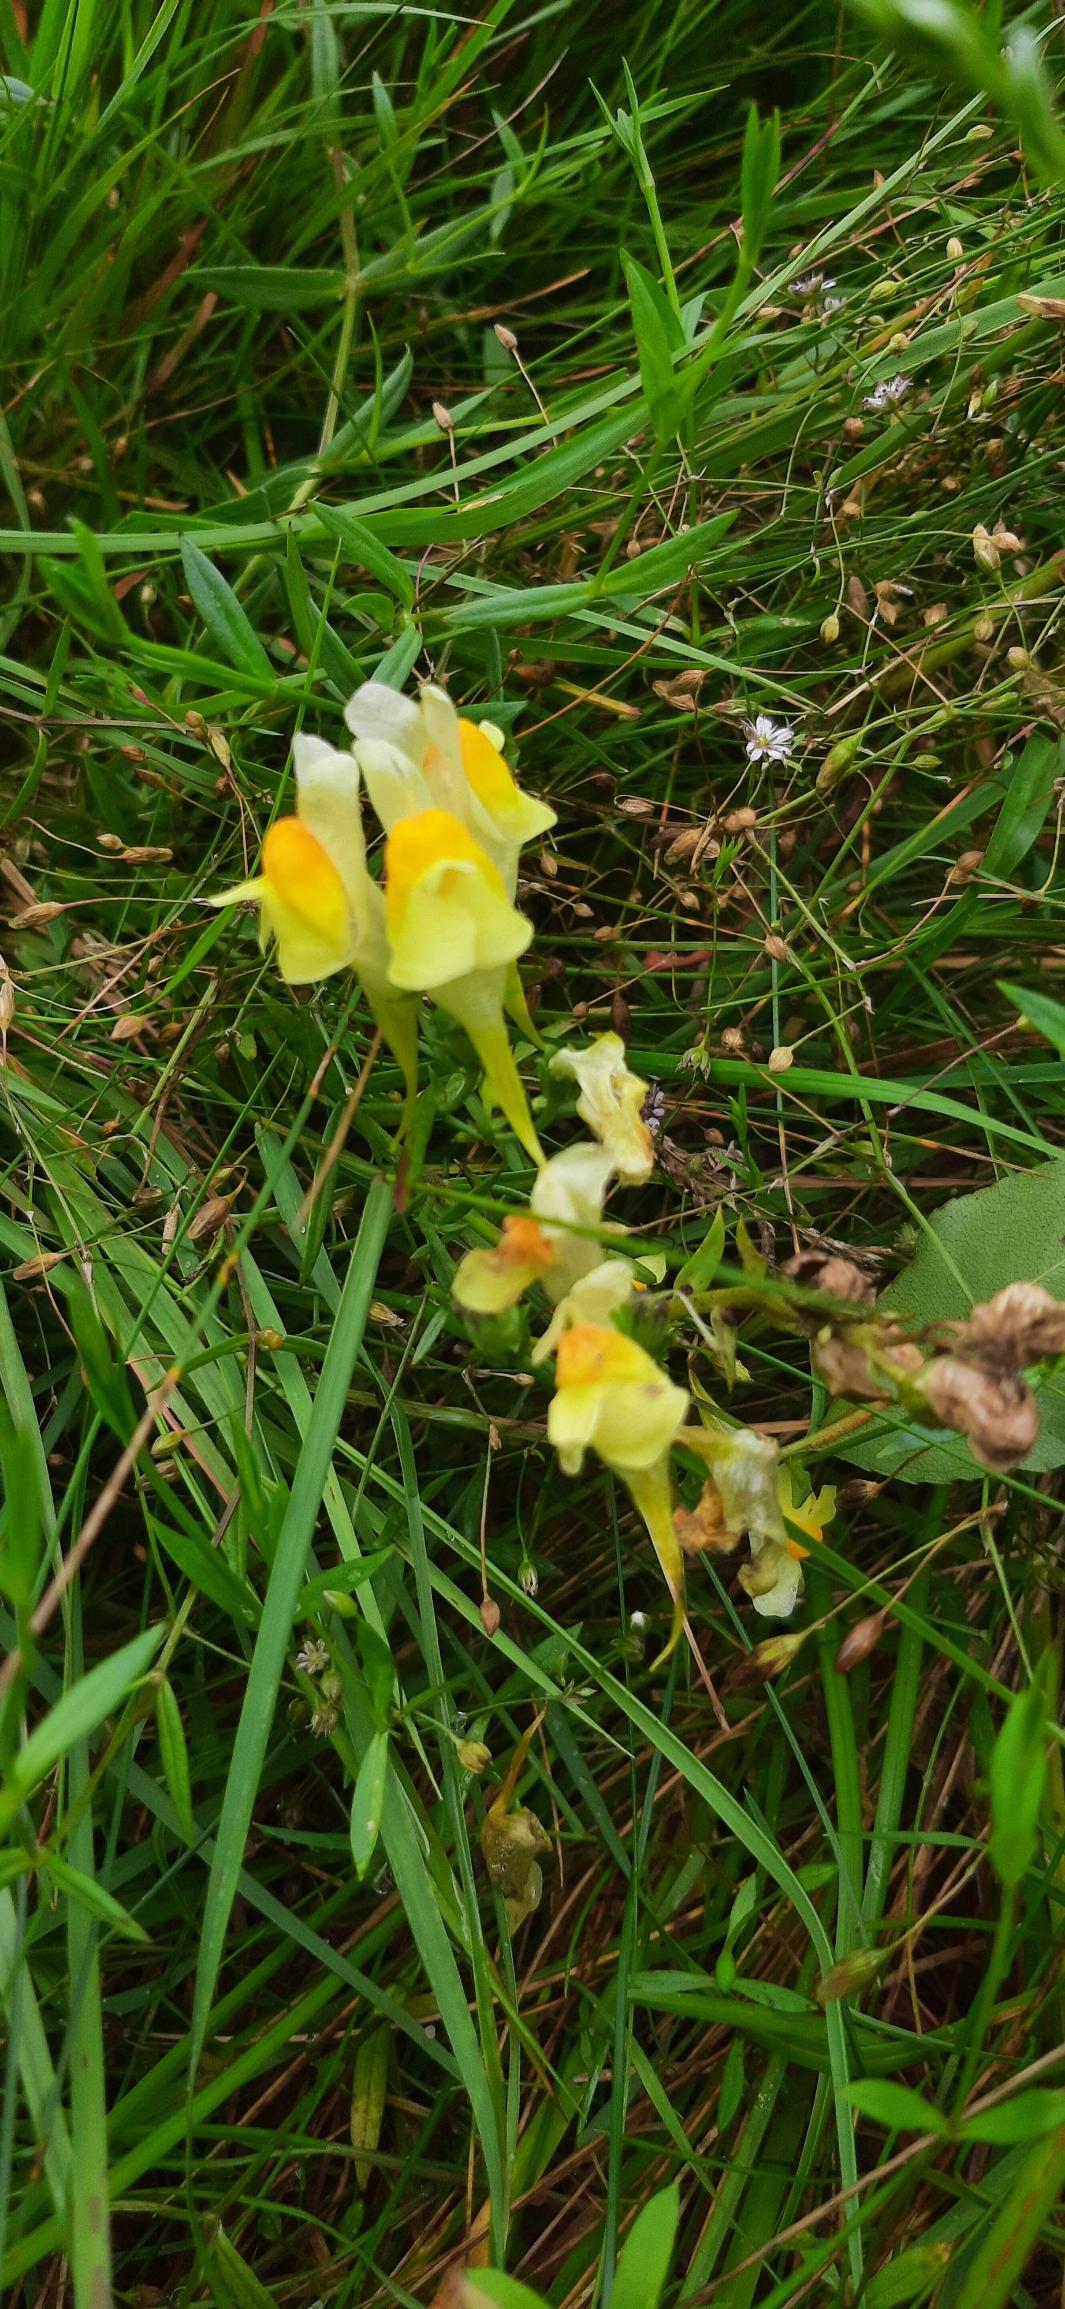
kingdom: Plantae
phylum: Tracheophyta
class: Magnoliopsida
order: Lamiales
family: Plantaginaceae
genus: Linaria
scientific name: Linaria vulgaris
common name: Almindelig torskemund
